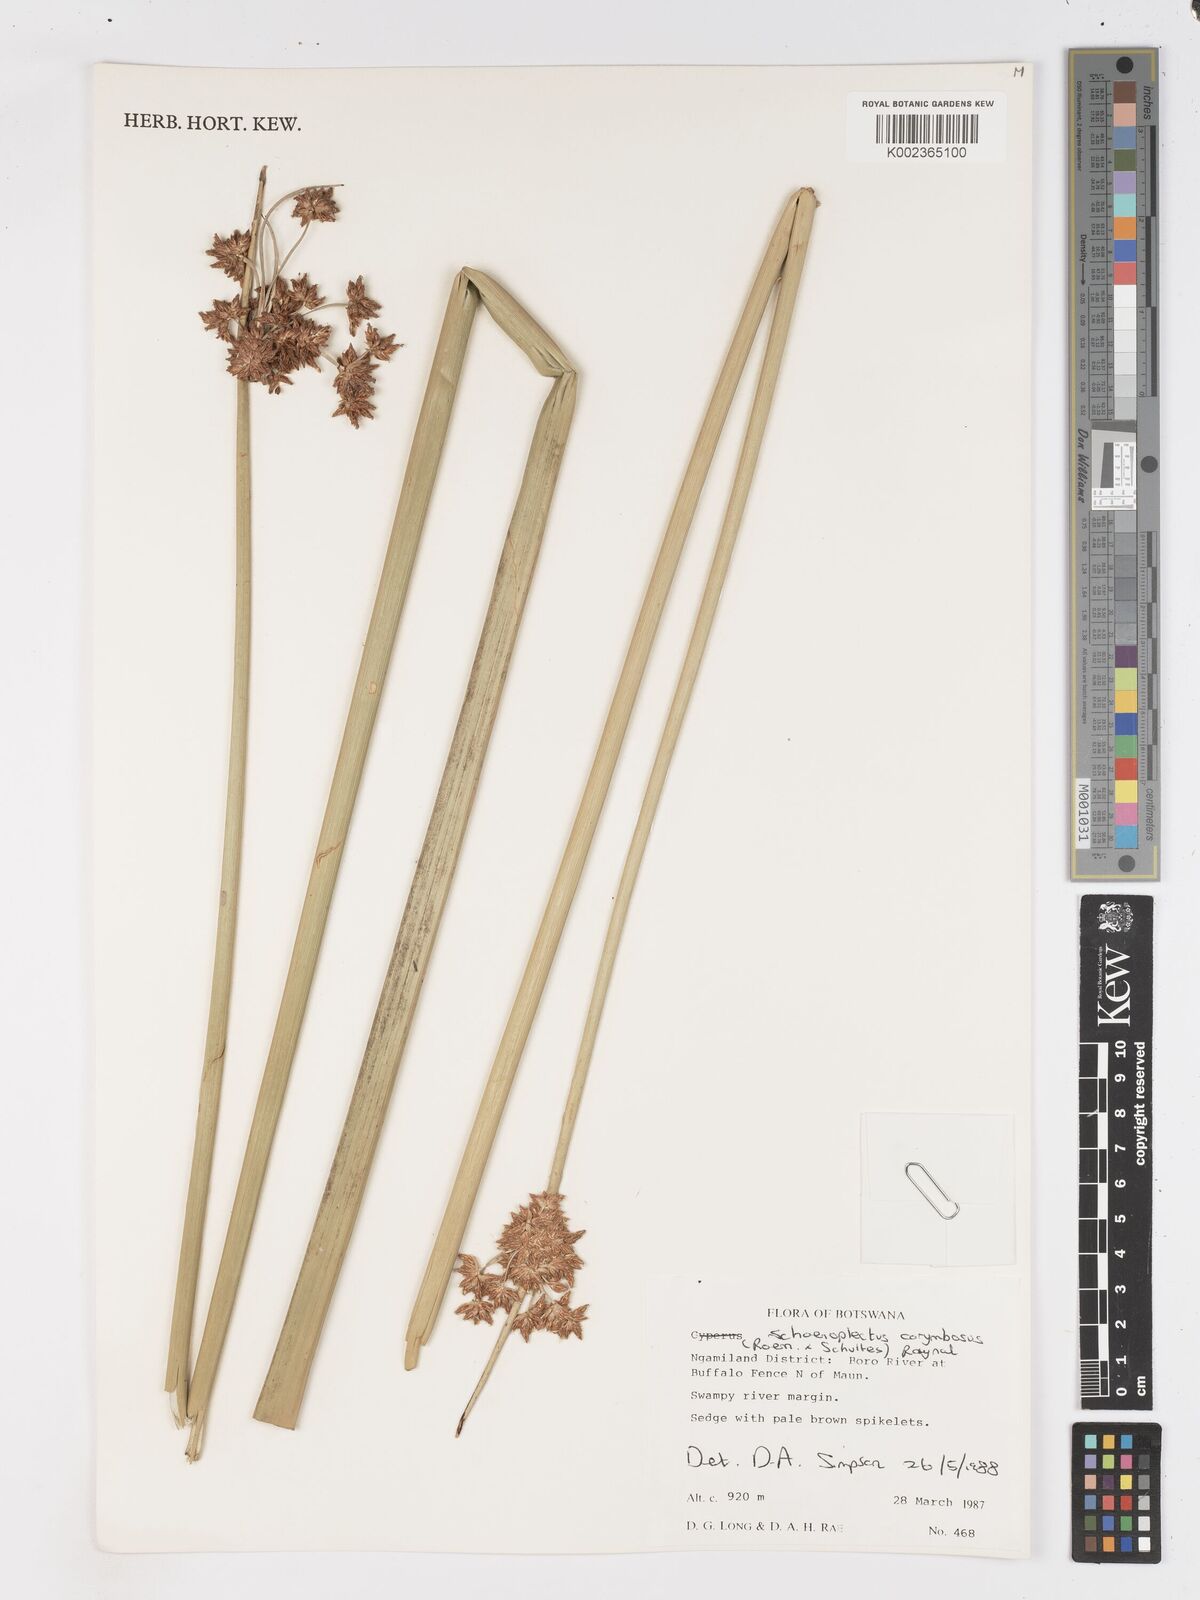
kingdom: Plantae
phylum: Tracheophyta
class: Liliopsida
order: Poales
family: Cyperaceae
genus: Schoenoplectiella
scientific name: Schoenoplectiella corymbosa
